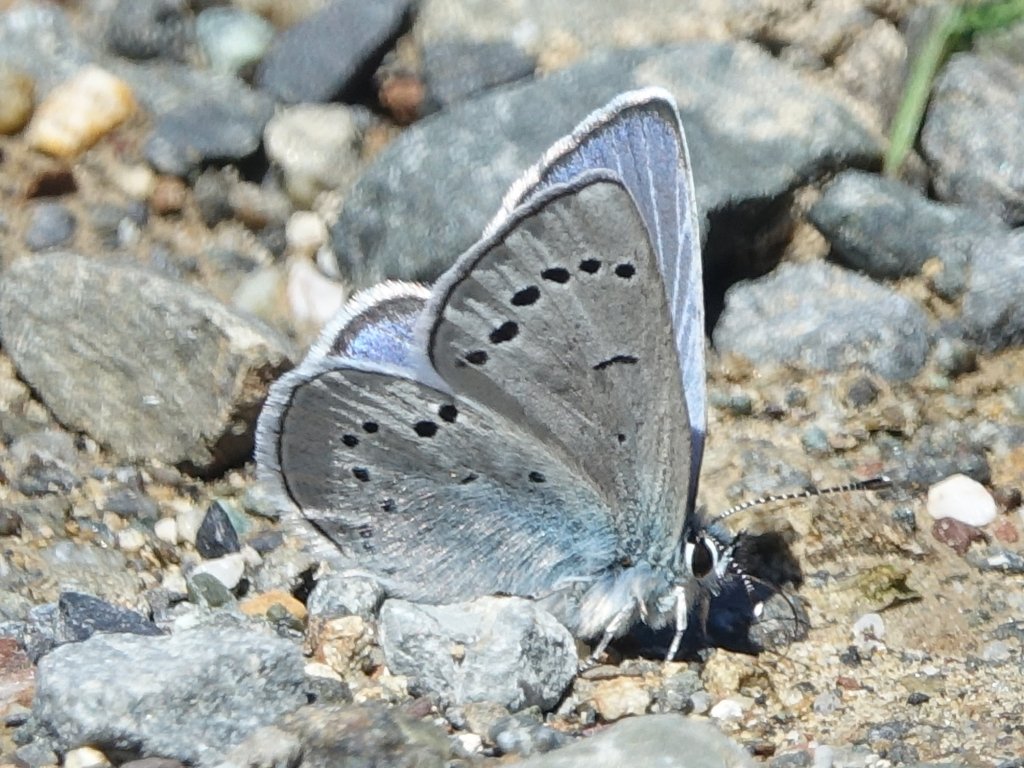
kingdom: Animalia
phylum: Arthropoda
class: Insecta
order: Lepidoptera
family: Lycaenidae
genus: Glaucopsyche
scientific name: Glaucopsyche lygdamus
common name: Silvery Blue
